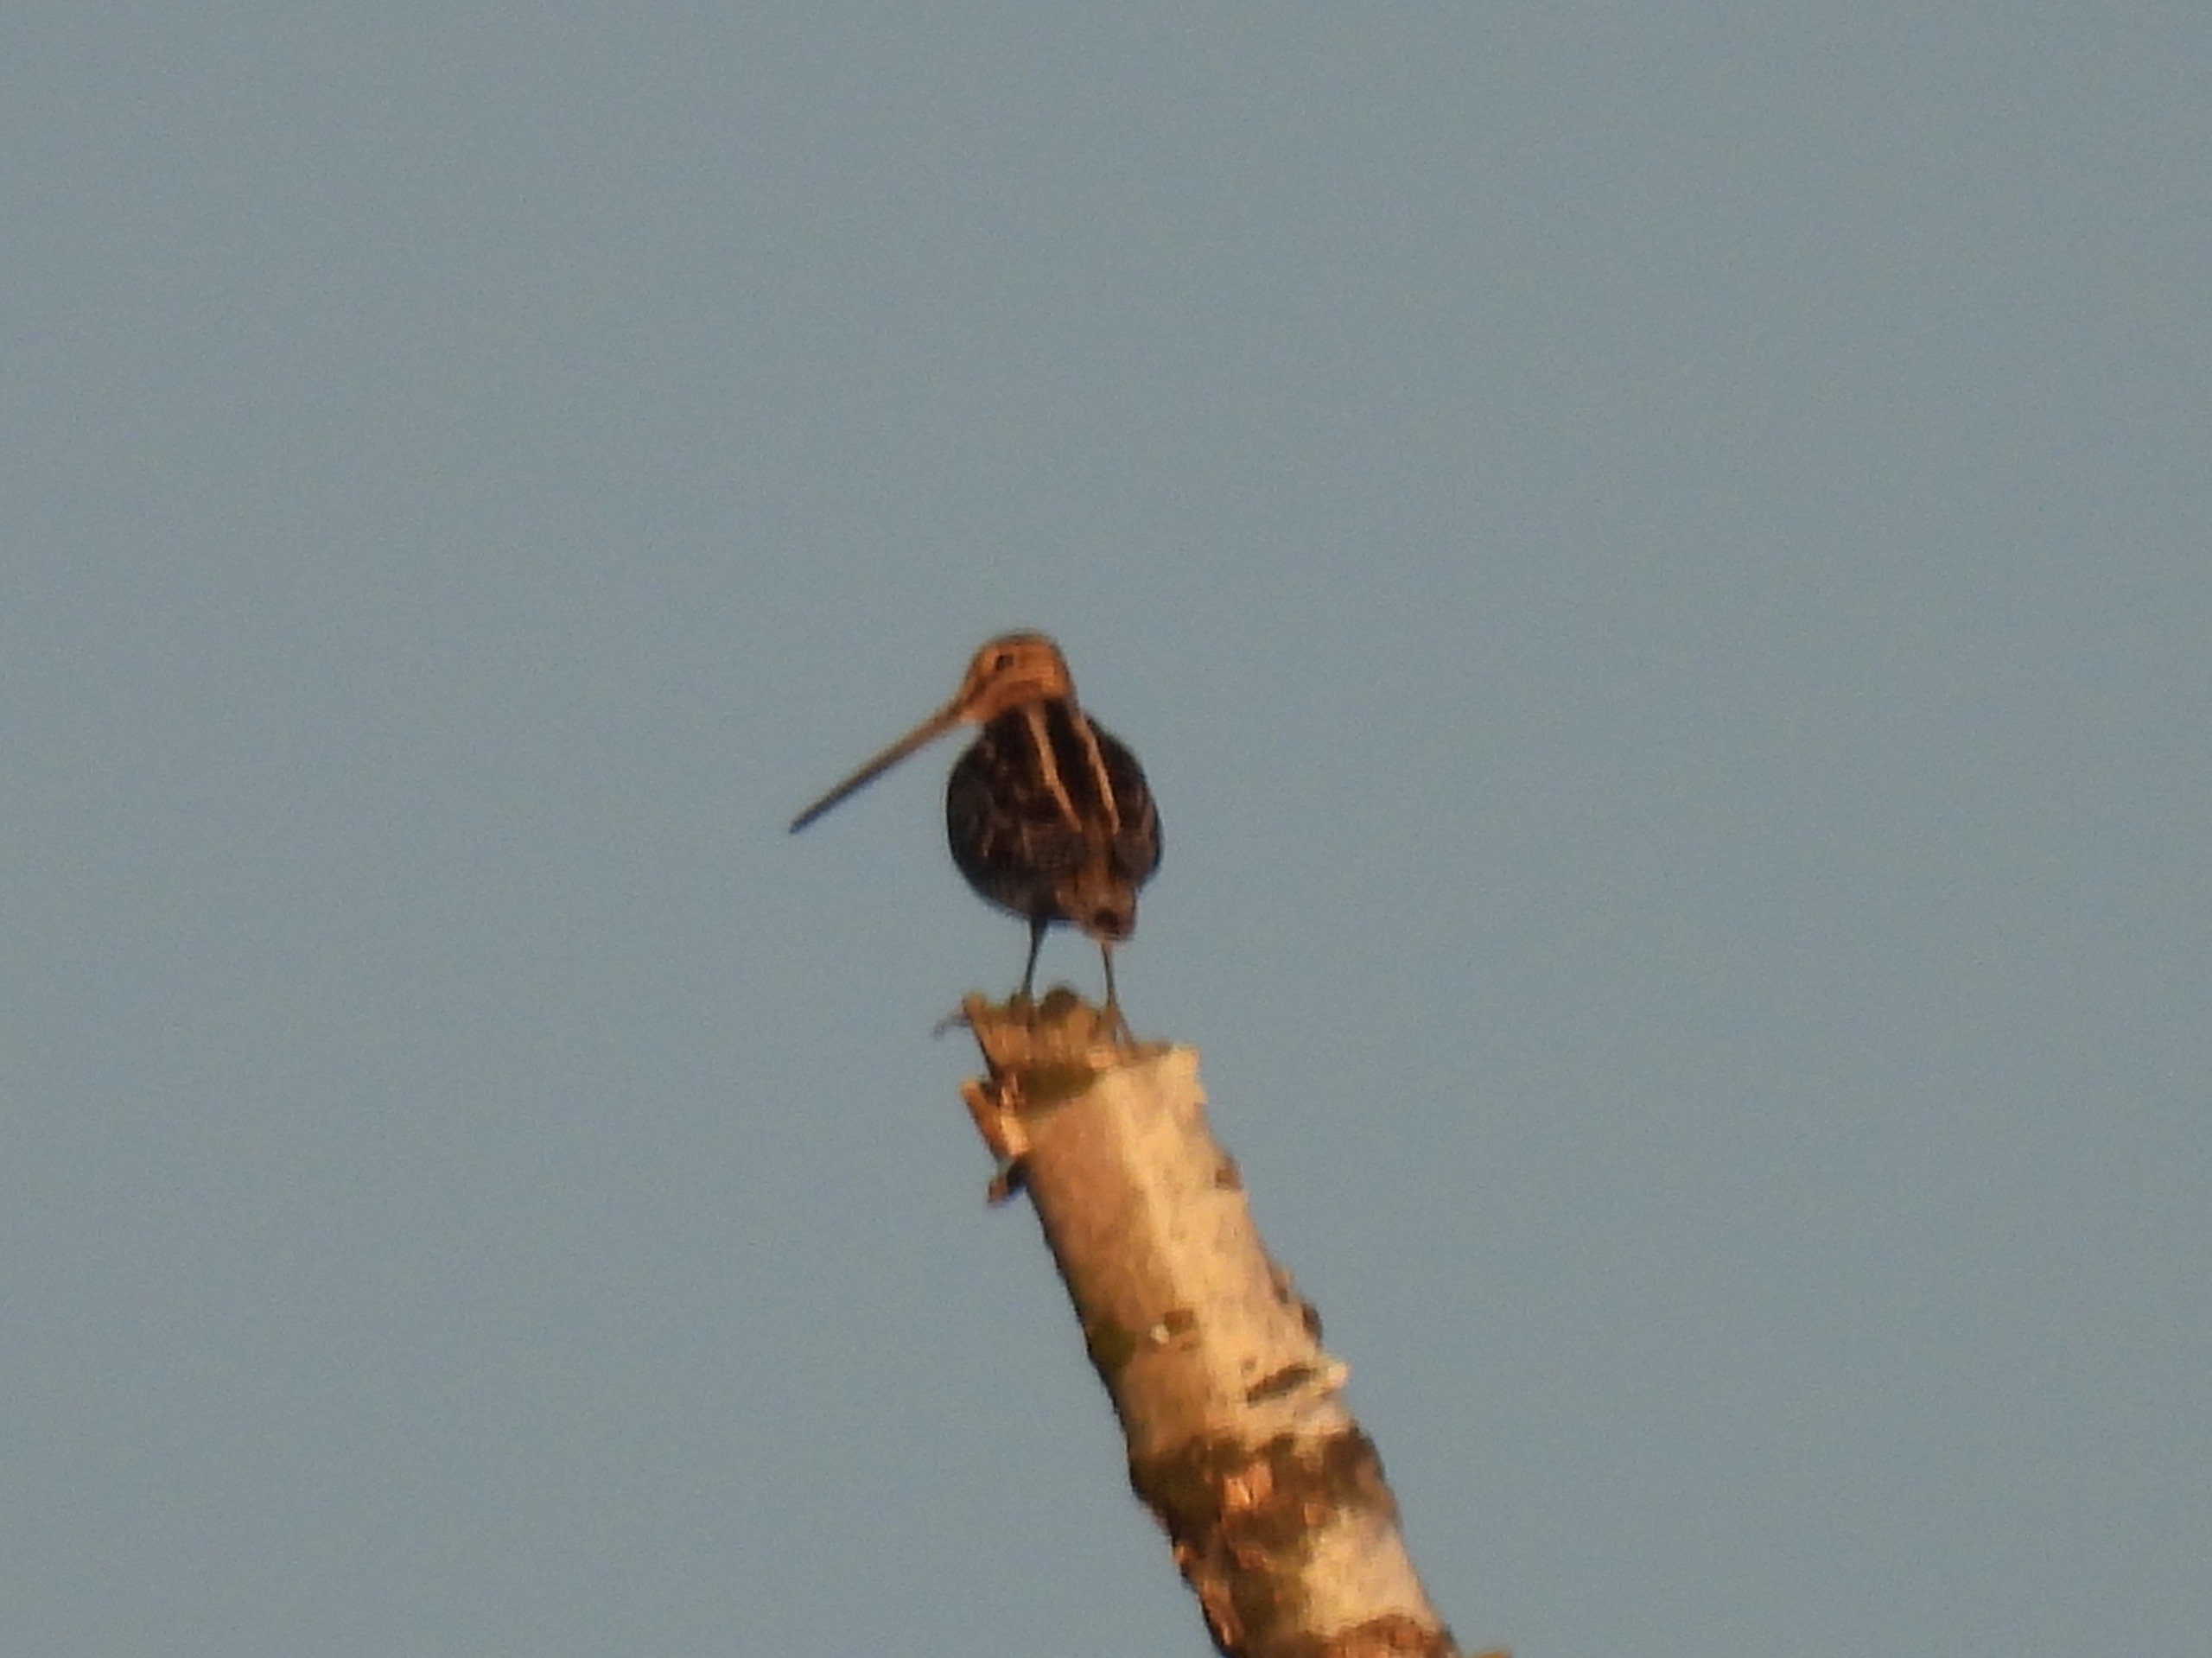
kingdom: Animalia
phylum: Chordata
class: Aves
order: Charadriiformes
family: Scolopacidae
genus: Gallinago
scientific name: Gallinago gallinago
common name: Dobbeltbekkasin
